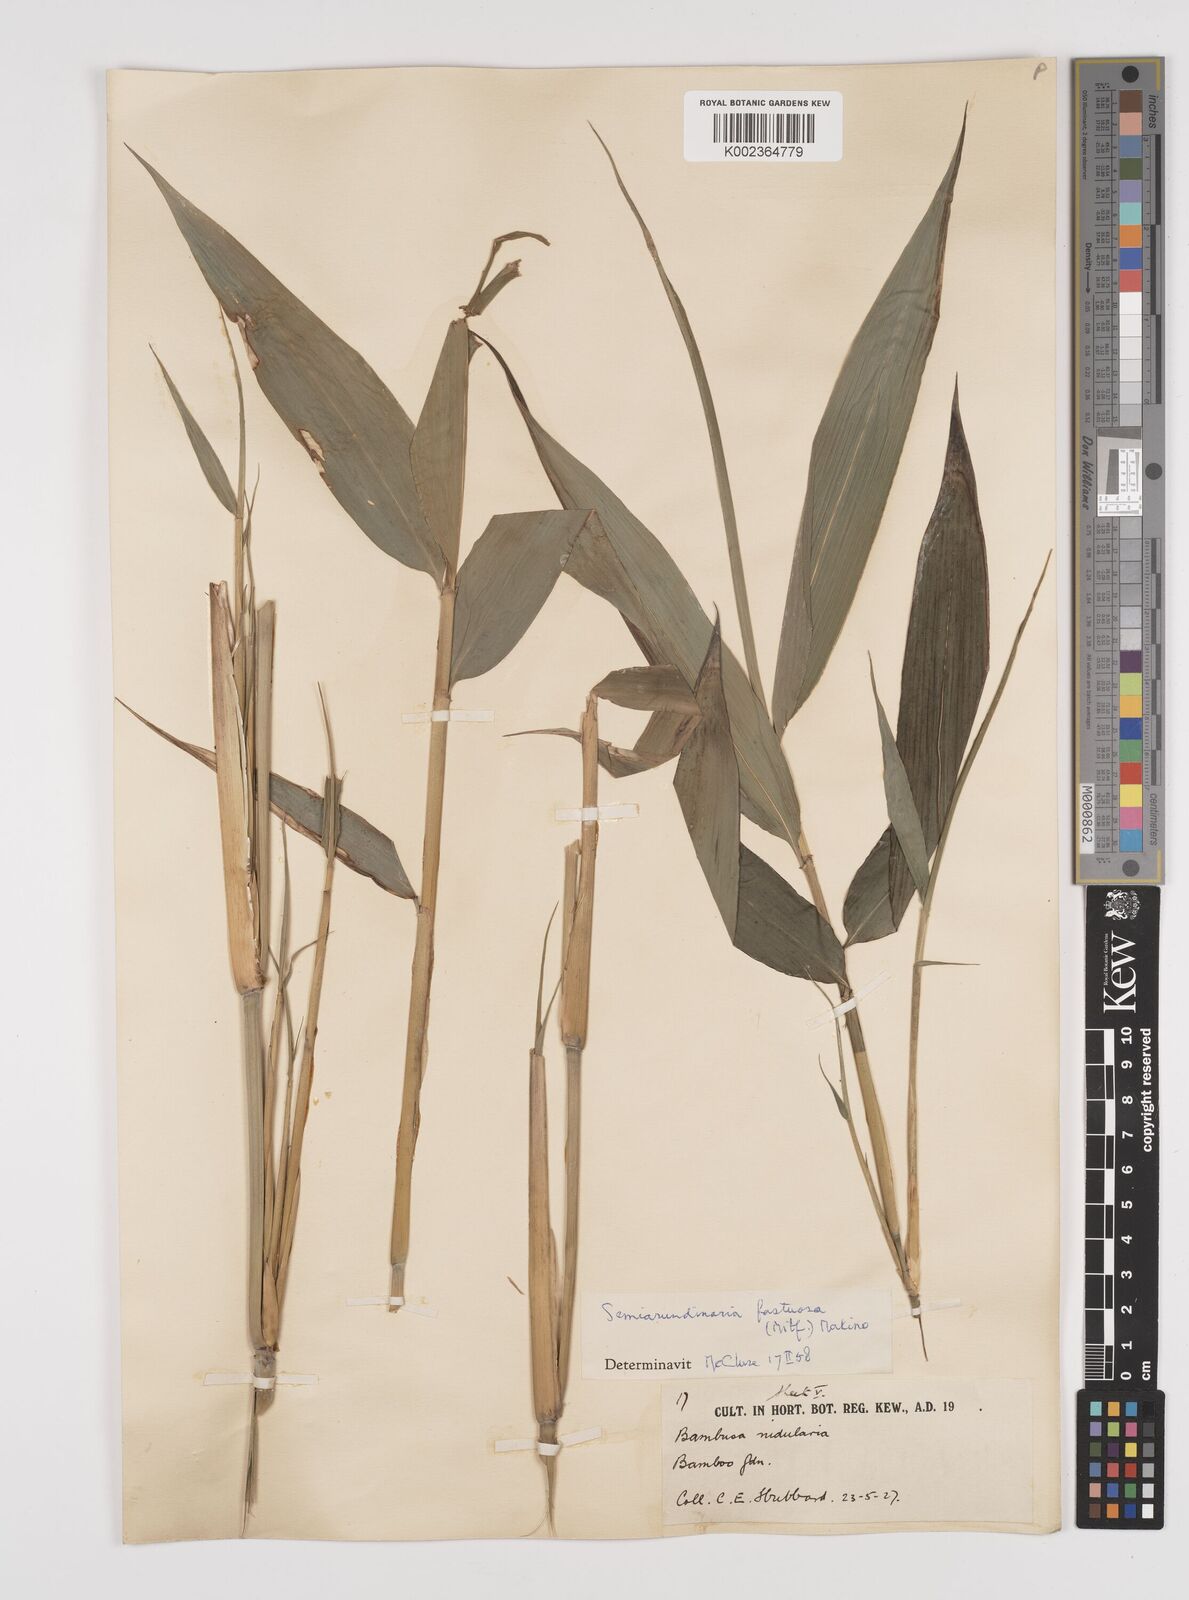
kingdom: Plantae
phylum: Tracheophyta
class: Liliopsida
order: Poales
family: Poaceae
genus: Semiarundinaria
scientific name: Semiarundinaria fastuosa
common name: Narihira bamboo
